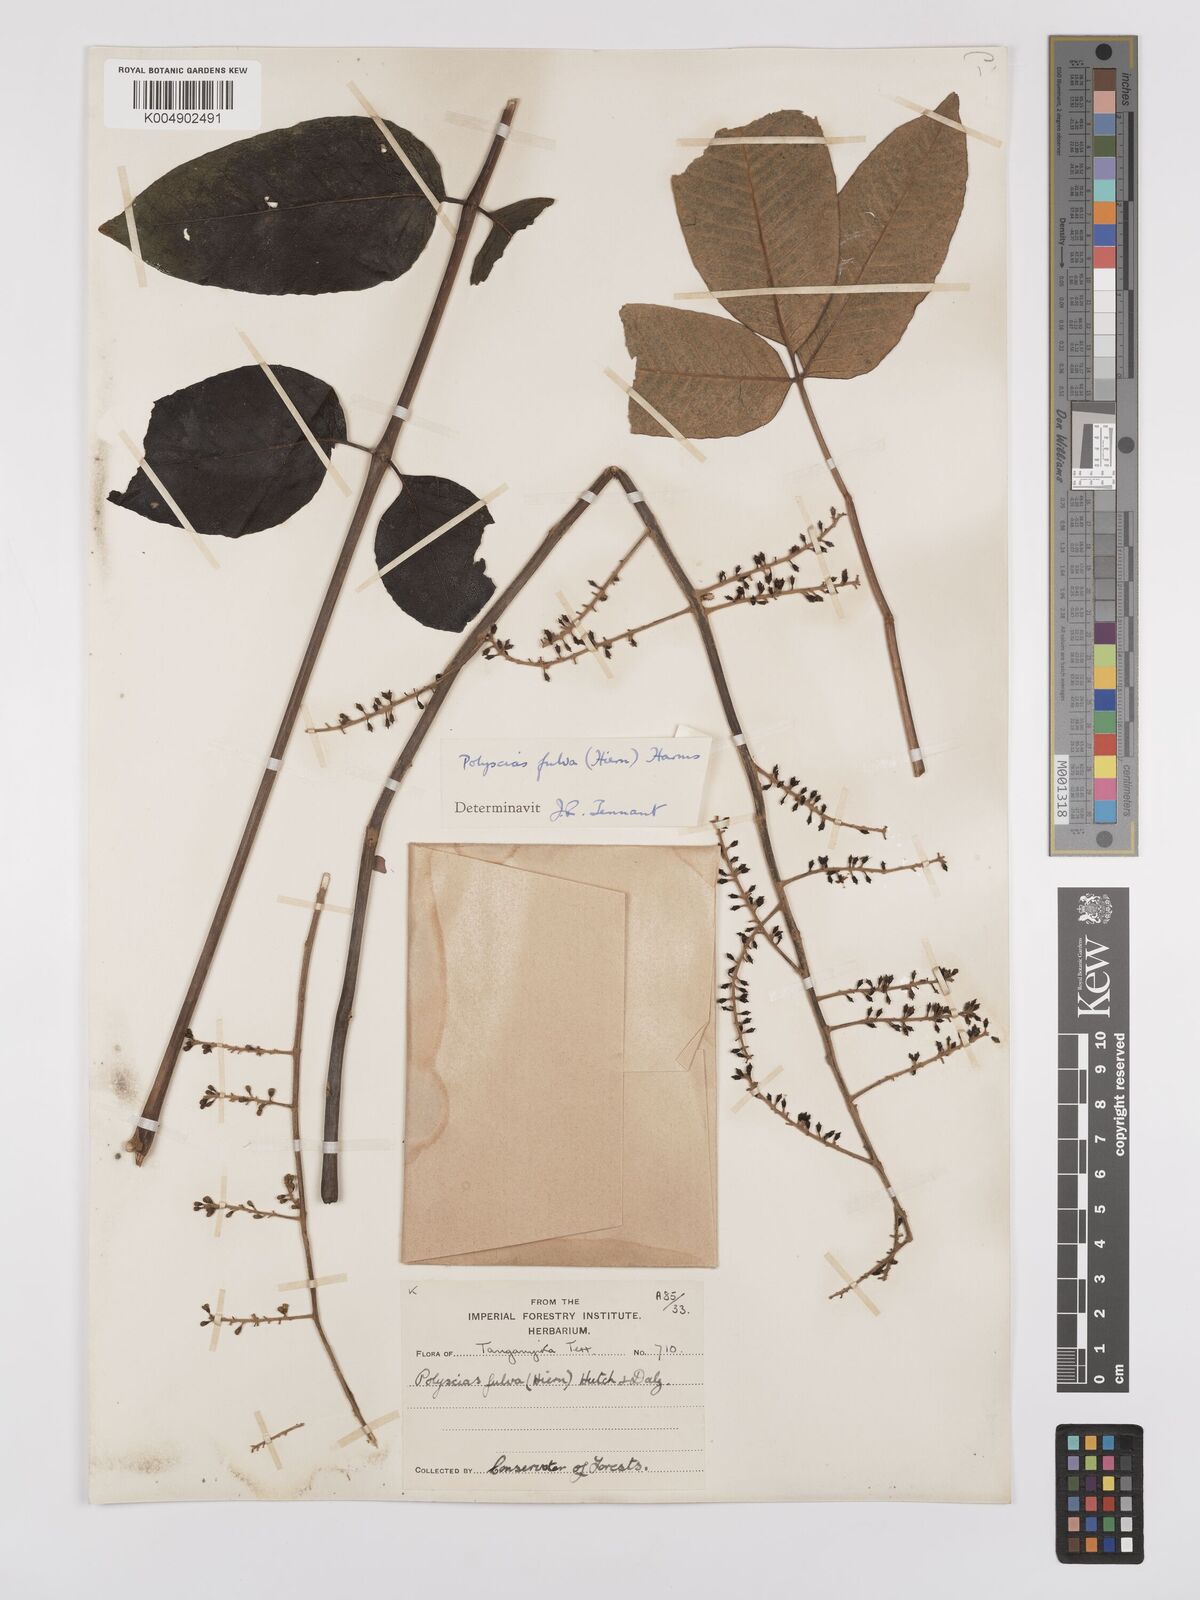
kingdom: Plantae
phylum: Tracheophyta
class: Magnoliopsida
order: Apiales
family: Araliaceae
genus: Polyscias
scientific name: Polyscias fulva
